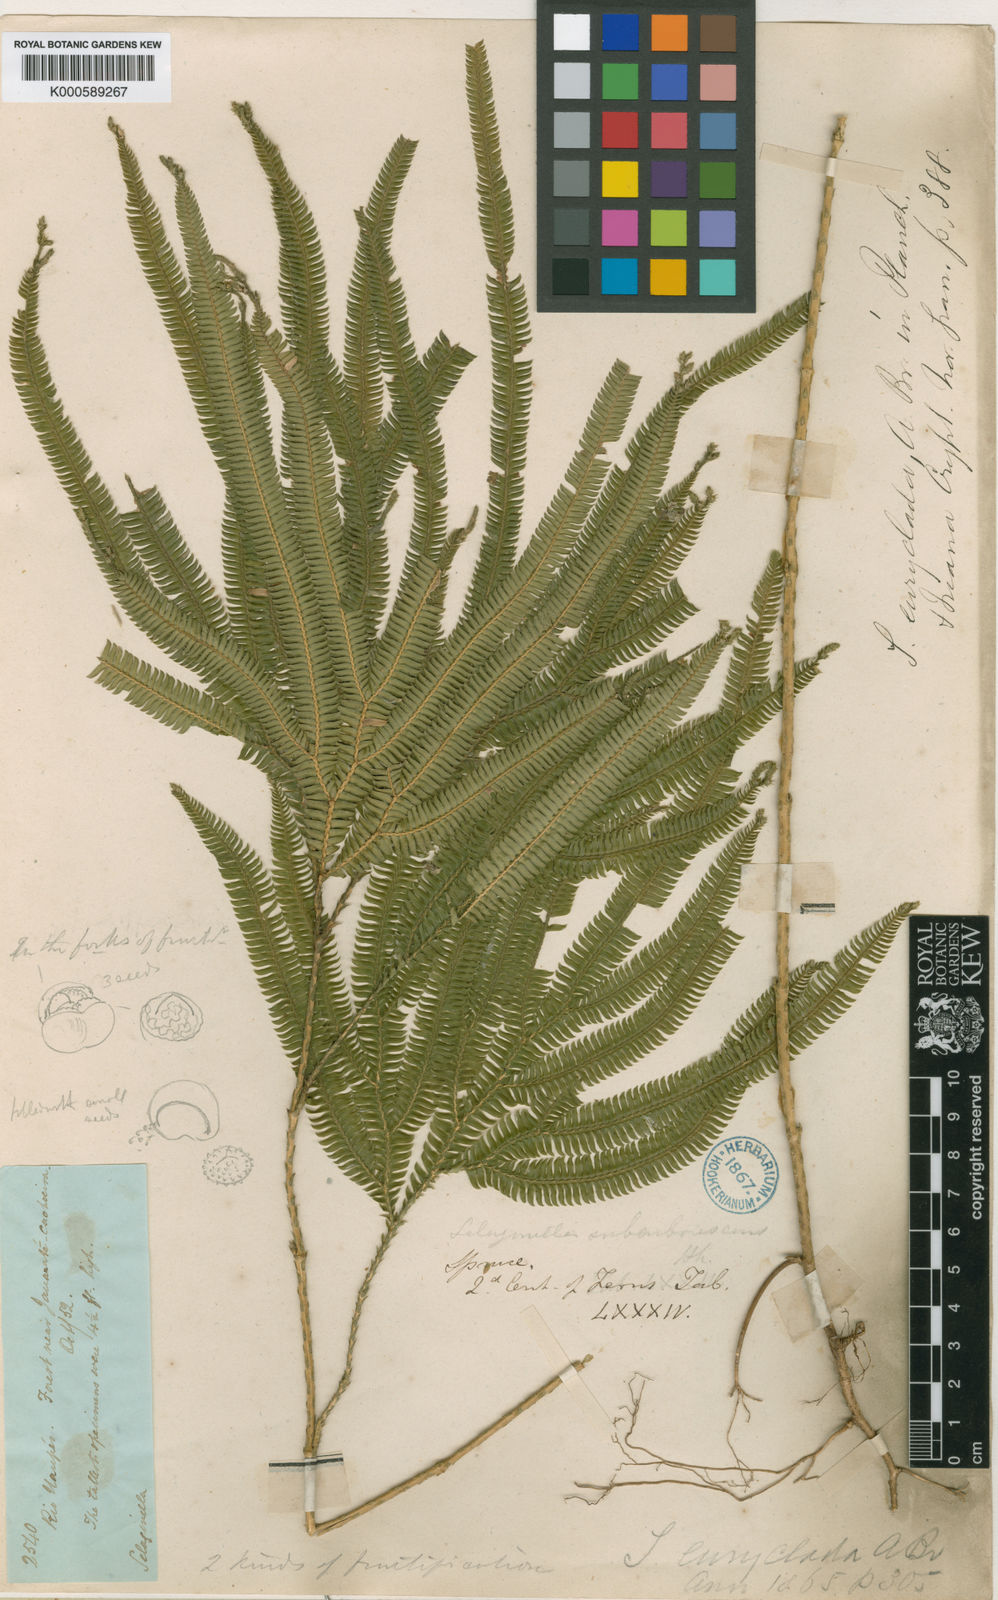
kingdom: Plantae
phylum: Tracheophyta
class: Lycopodiopsida
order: Selaginellales
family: Selaginellaceae
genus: Selaginella
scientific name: Selaginella parkeri
